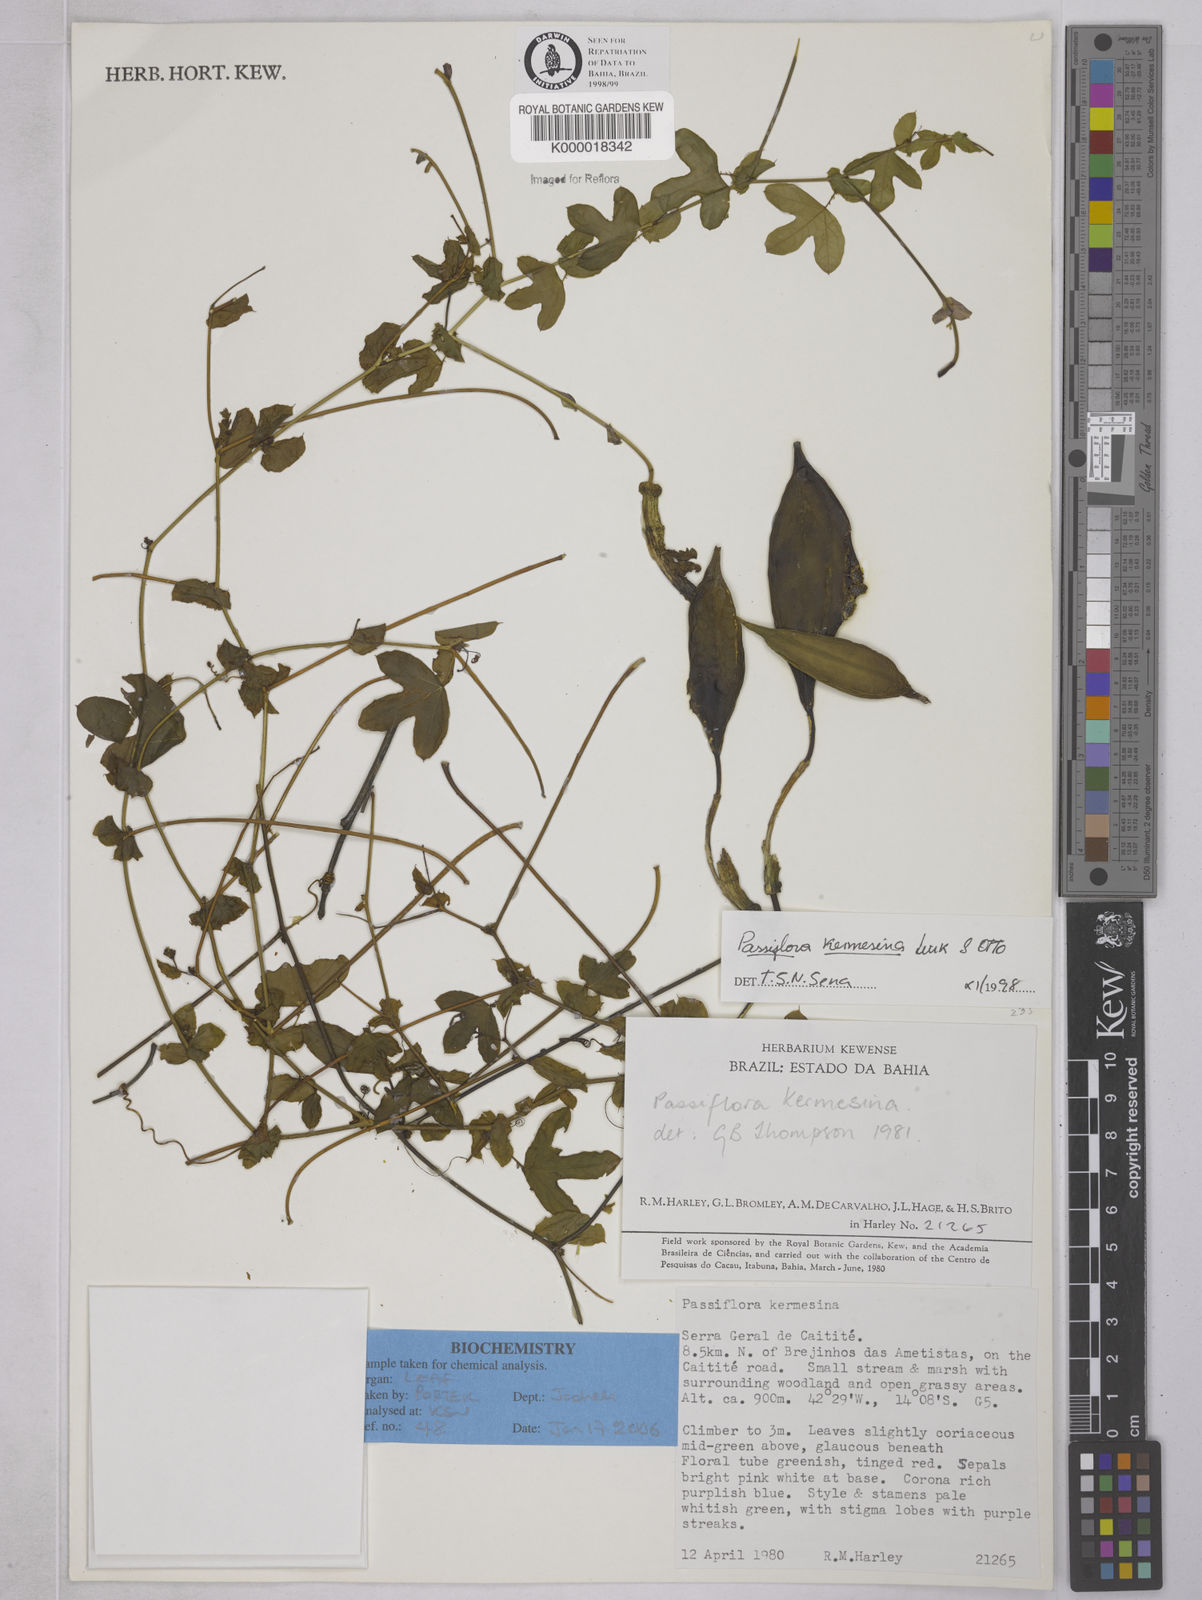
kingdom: Plantae
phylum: Tracheophyta
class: Magnoliopsida
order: Malpighiales
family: Passifloraceae
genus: Passiflora
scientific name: Passiflora kermesina
